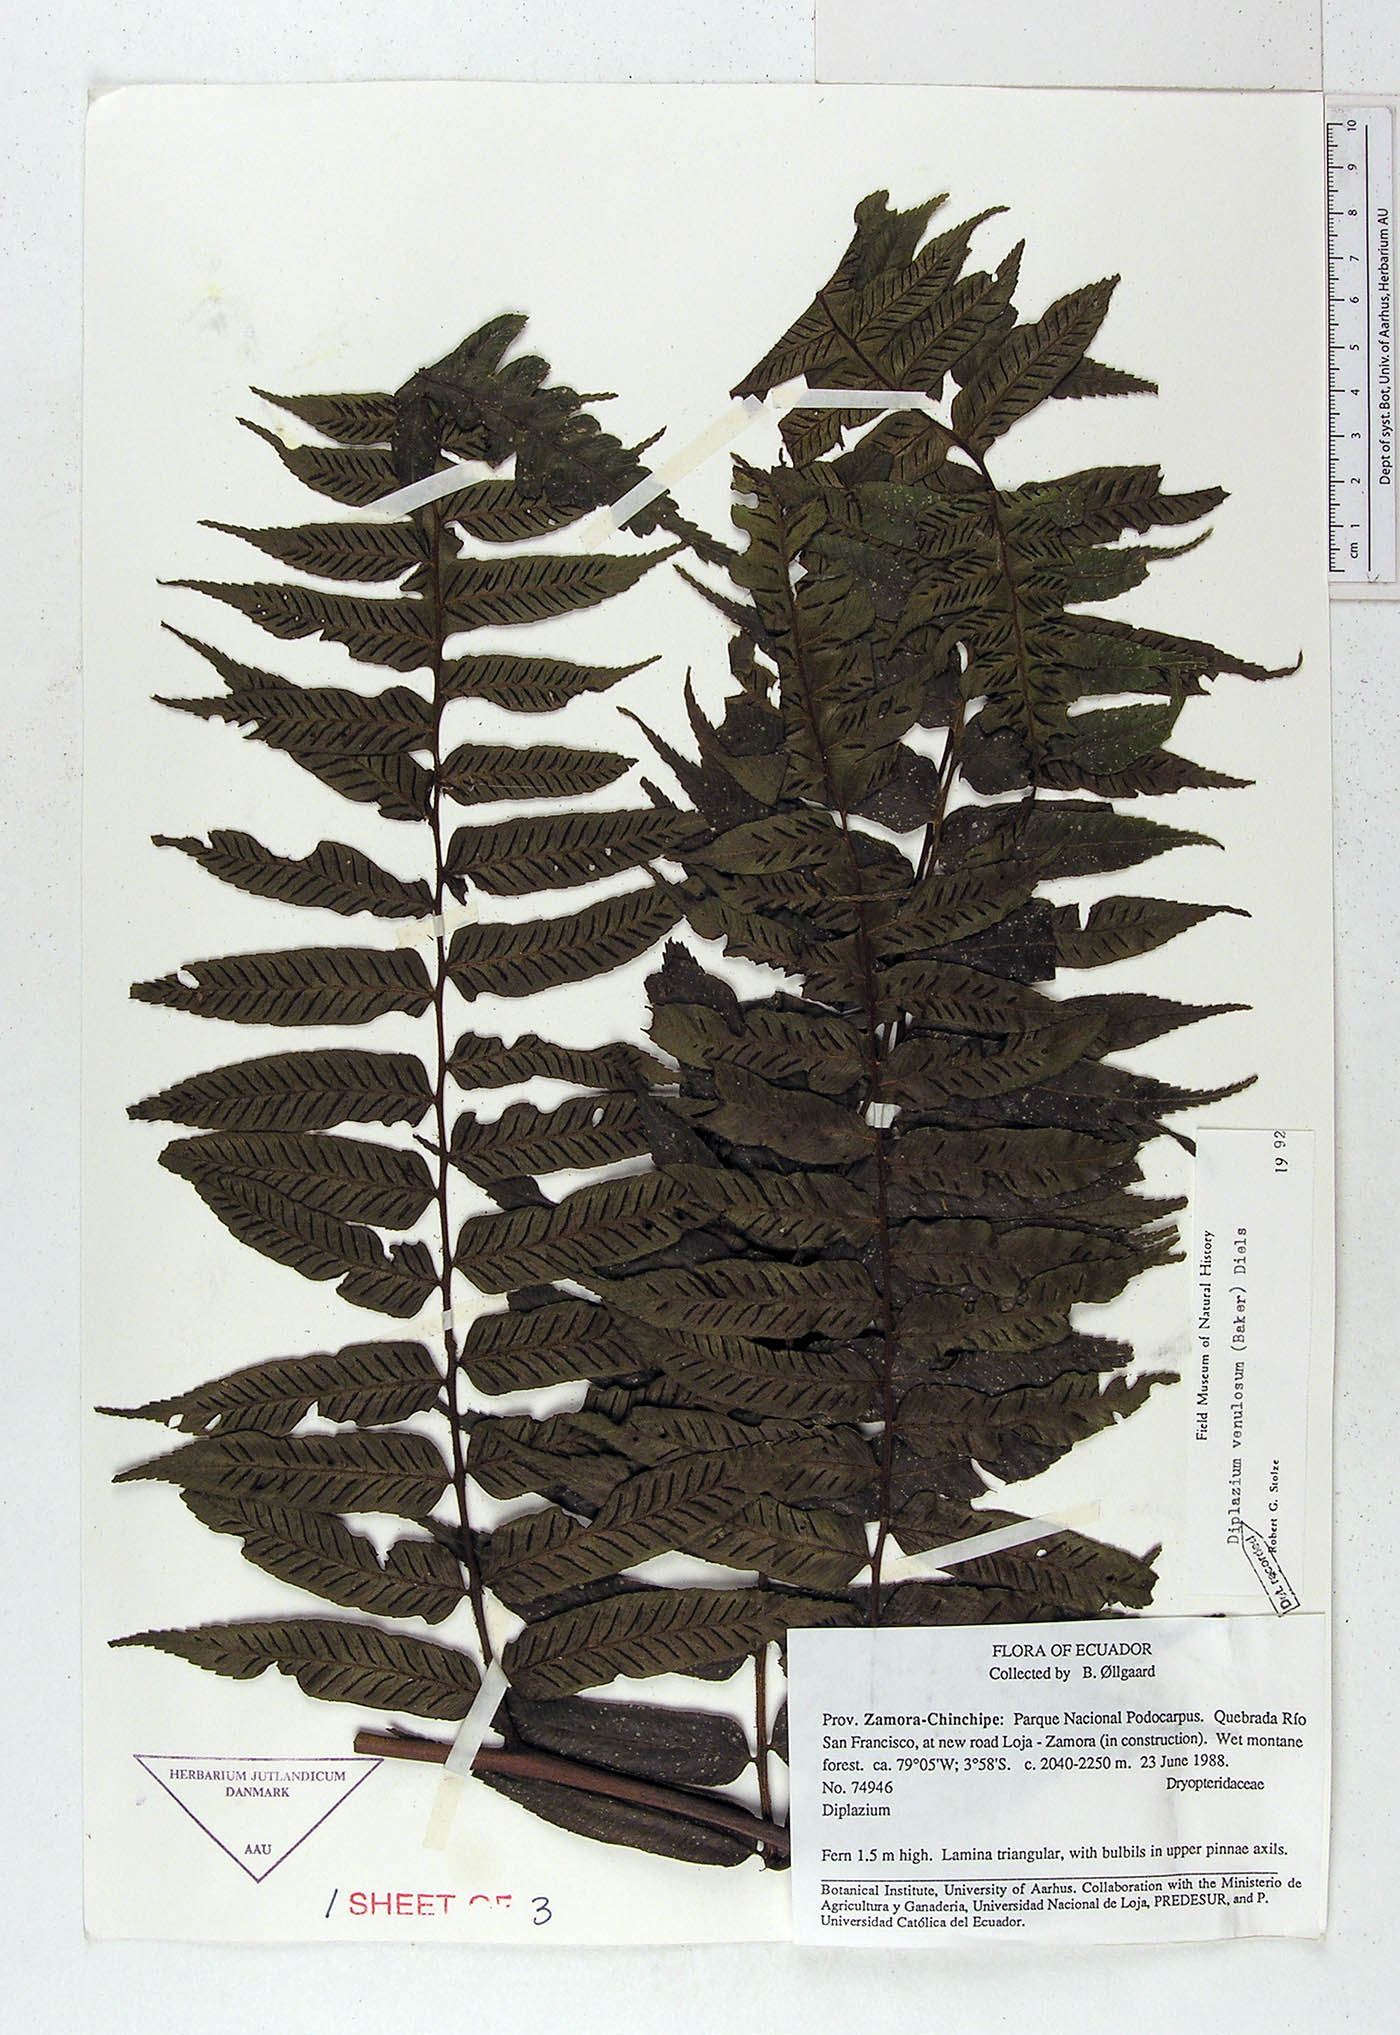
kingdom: Plantae
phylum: Tracheophyta
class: Polypodiopsida
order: Polypodiales
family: Athyriaceae
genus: Diplazium
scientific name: Diplazium venulosum
